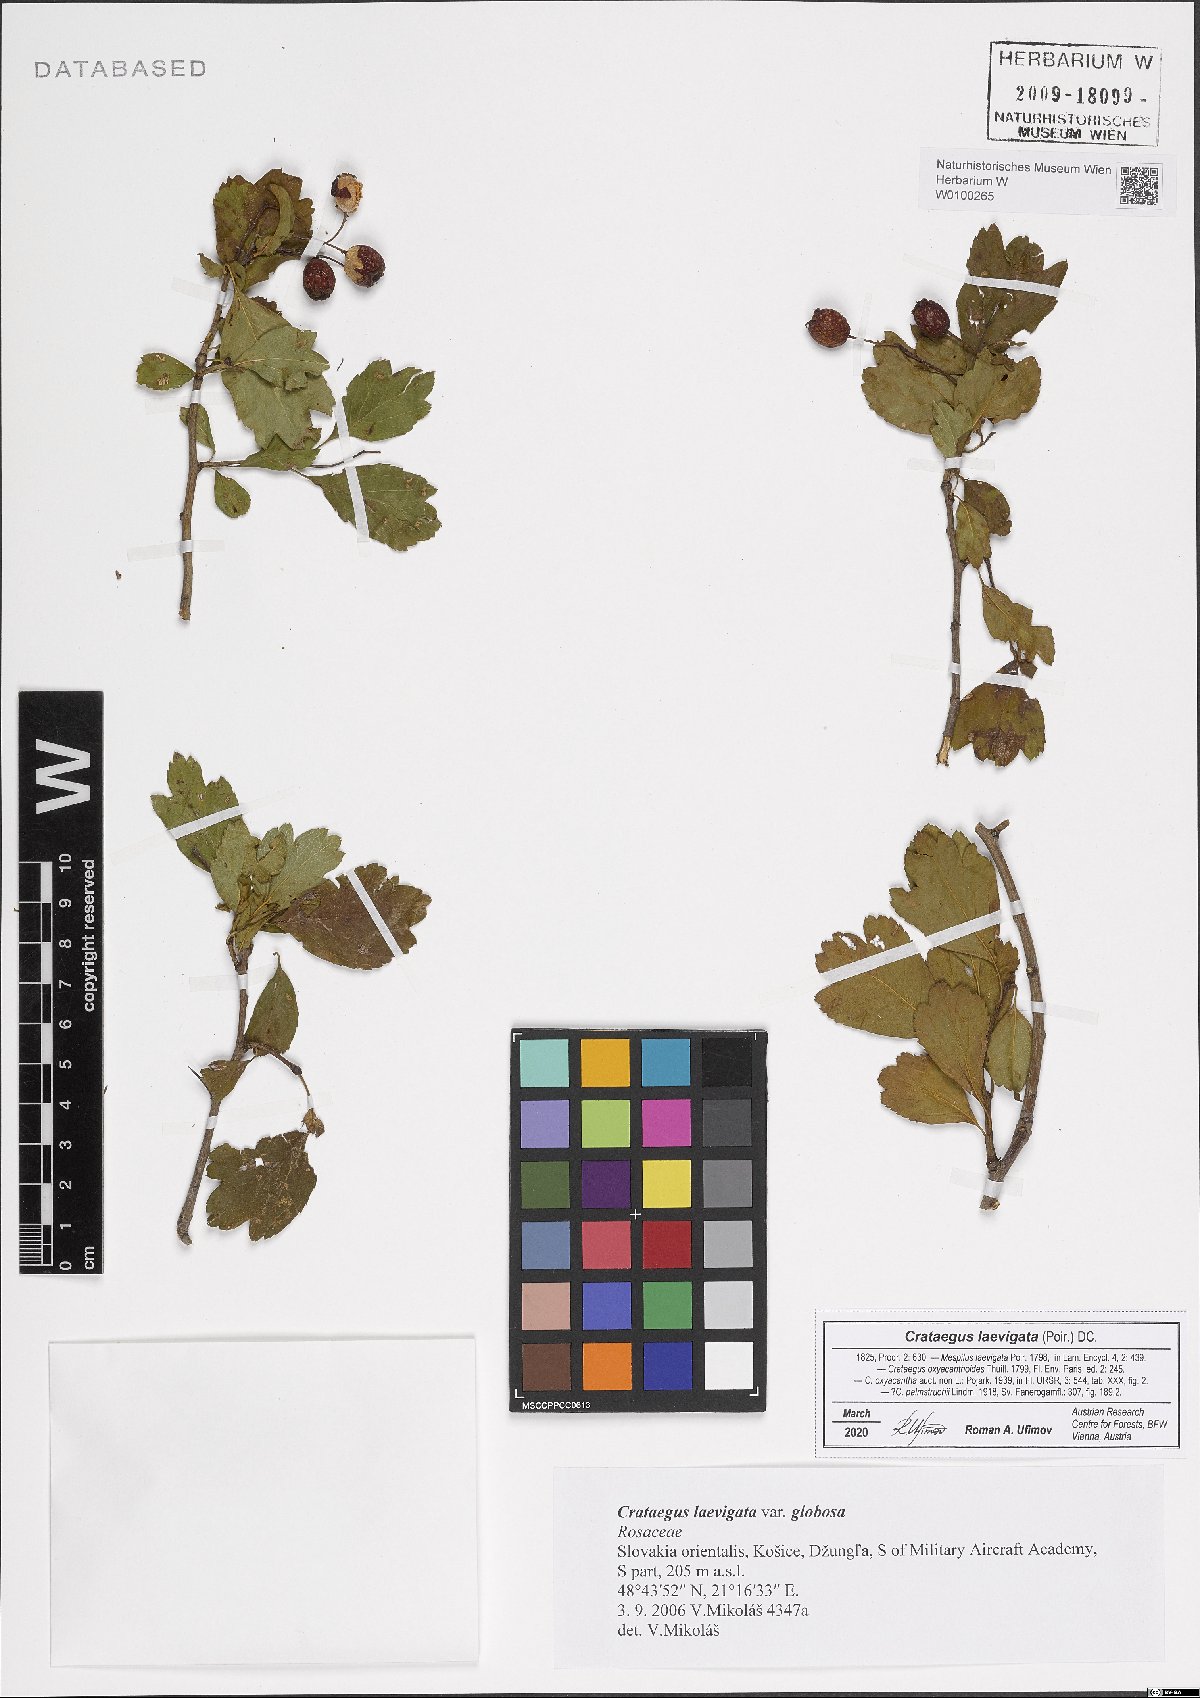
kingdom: Plantae
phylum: Tracheophyta
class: Magnoliopsida
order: Rosales
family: Rosaceae
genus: Crataegus
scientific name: Crataegus laevigata
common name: Midland hawthorn
